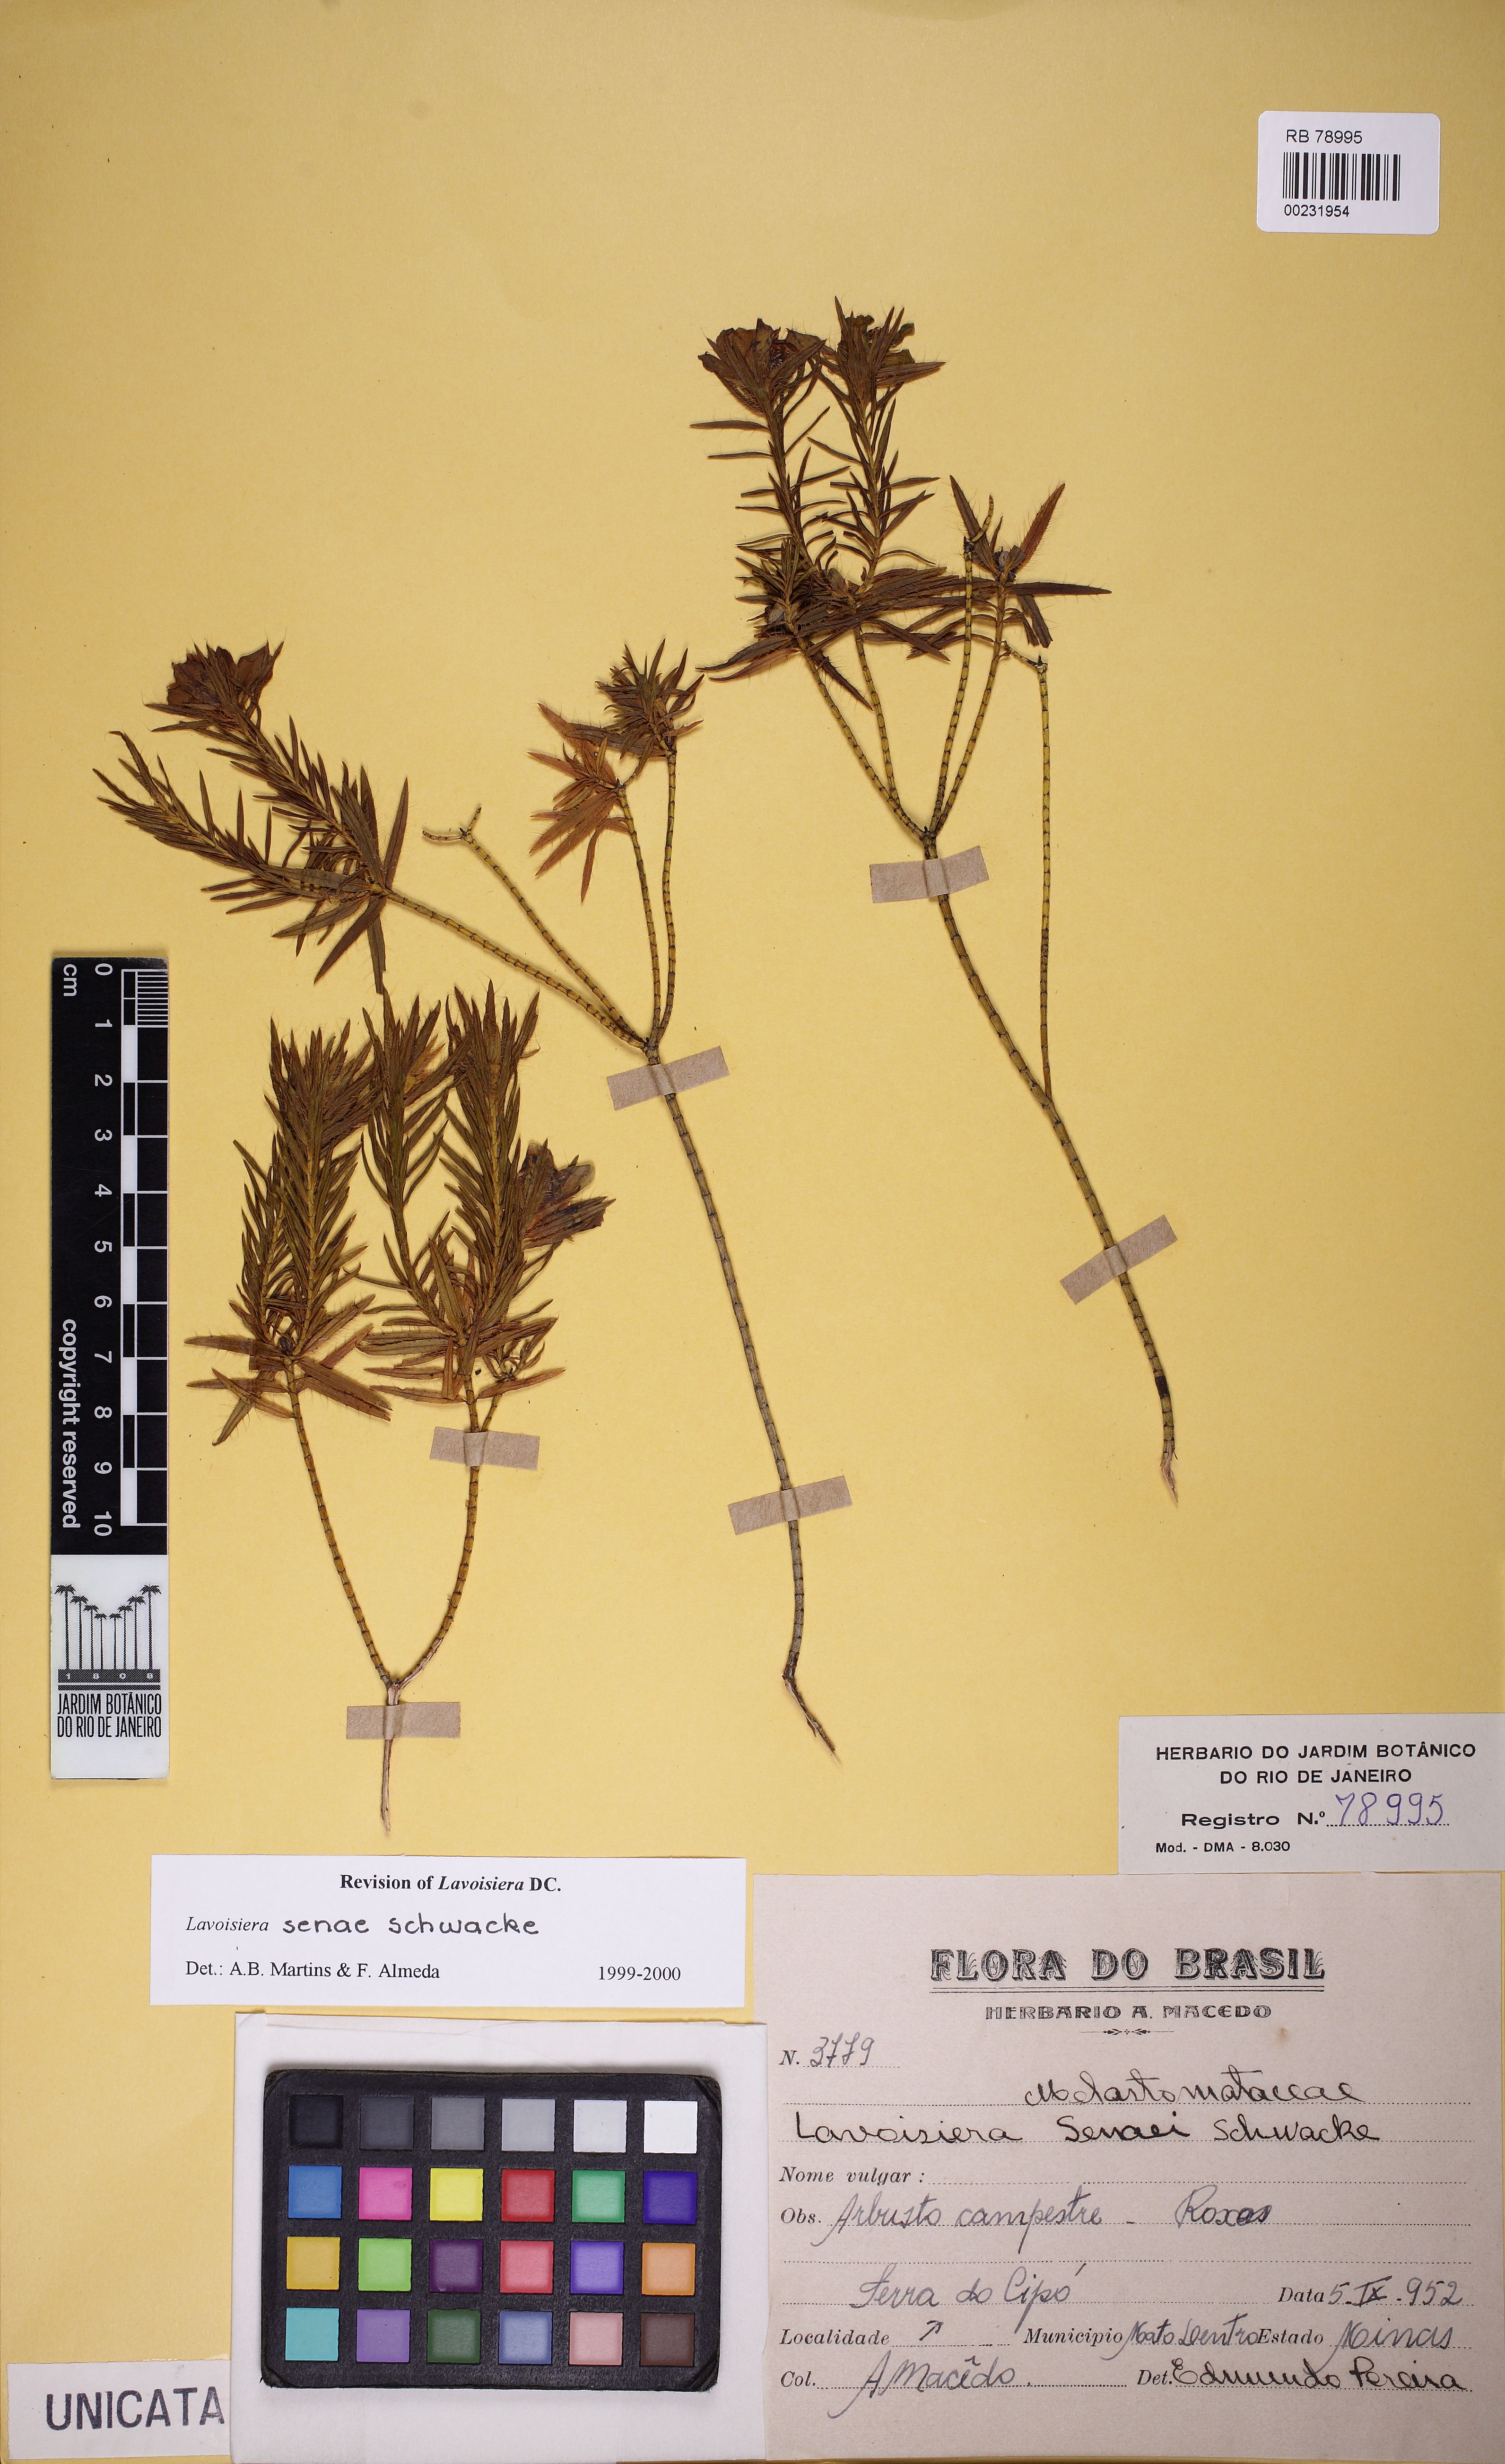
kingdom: Plantae
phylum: Tracheophyta
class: Magnoliopsida
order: Myrtales
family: Melastomataceae
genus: Microlicia
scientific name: Microlicia Lavoisiera senaei
